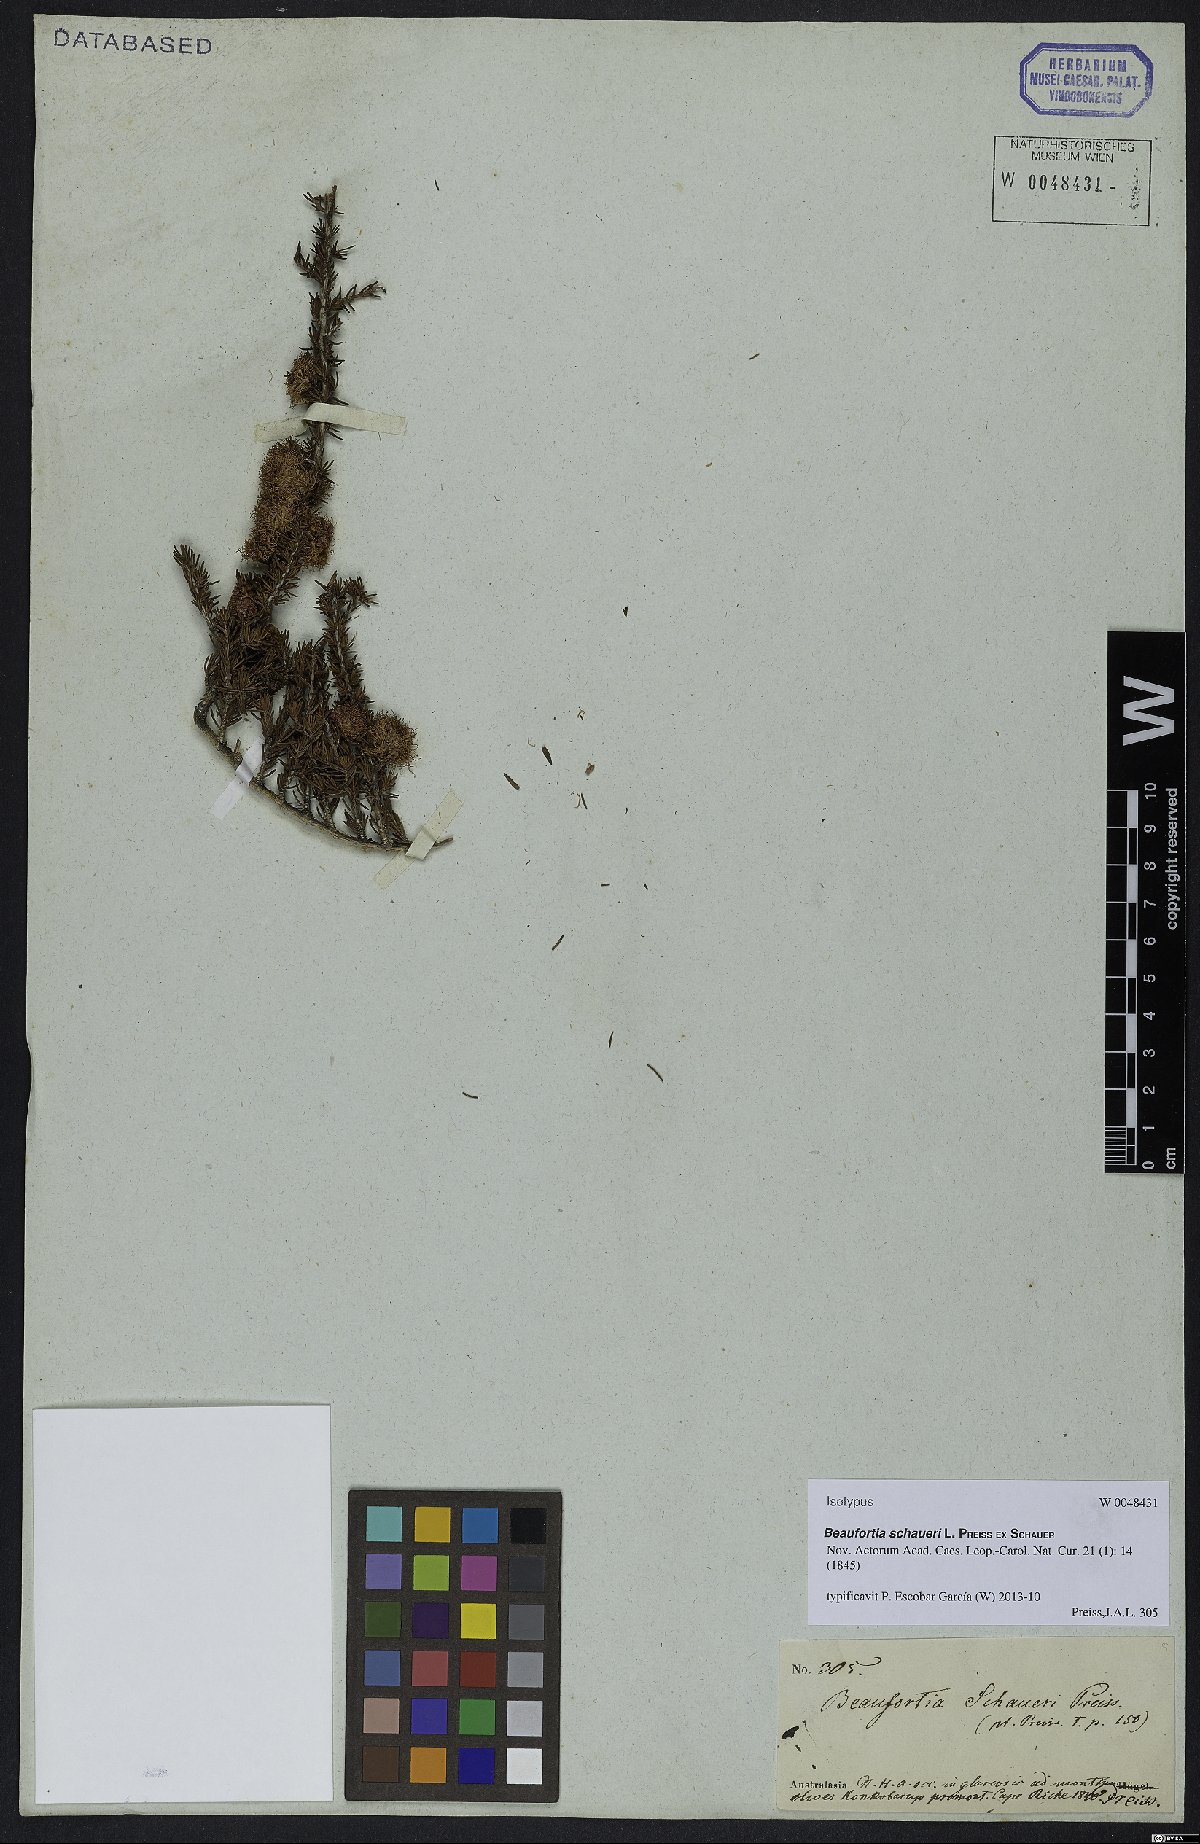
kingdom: Plantae
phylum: Tracheophyta
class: Magnoliopsida
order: Myrtales
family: Myrtaceae
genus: Melaleuca
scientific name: Melaleuca jonesii
